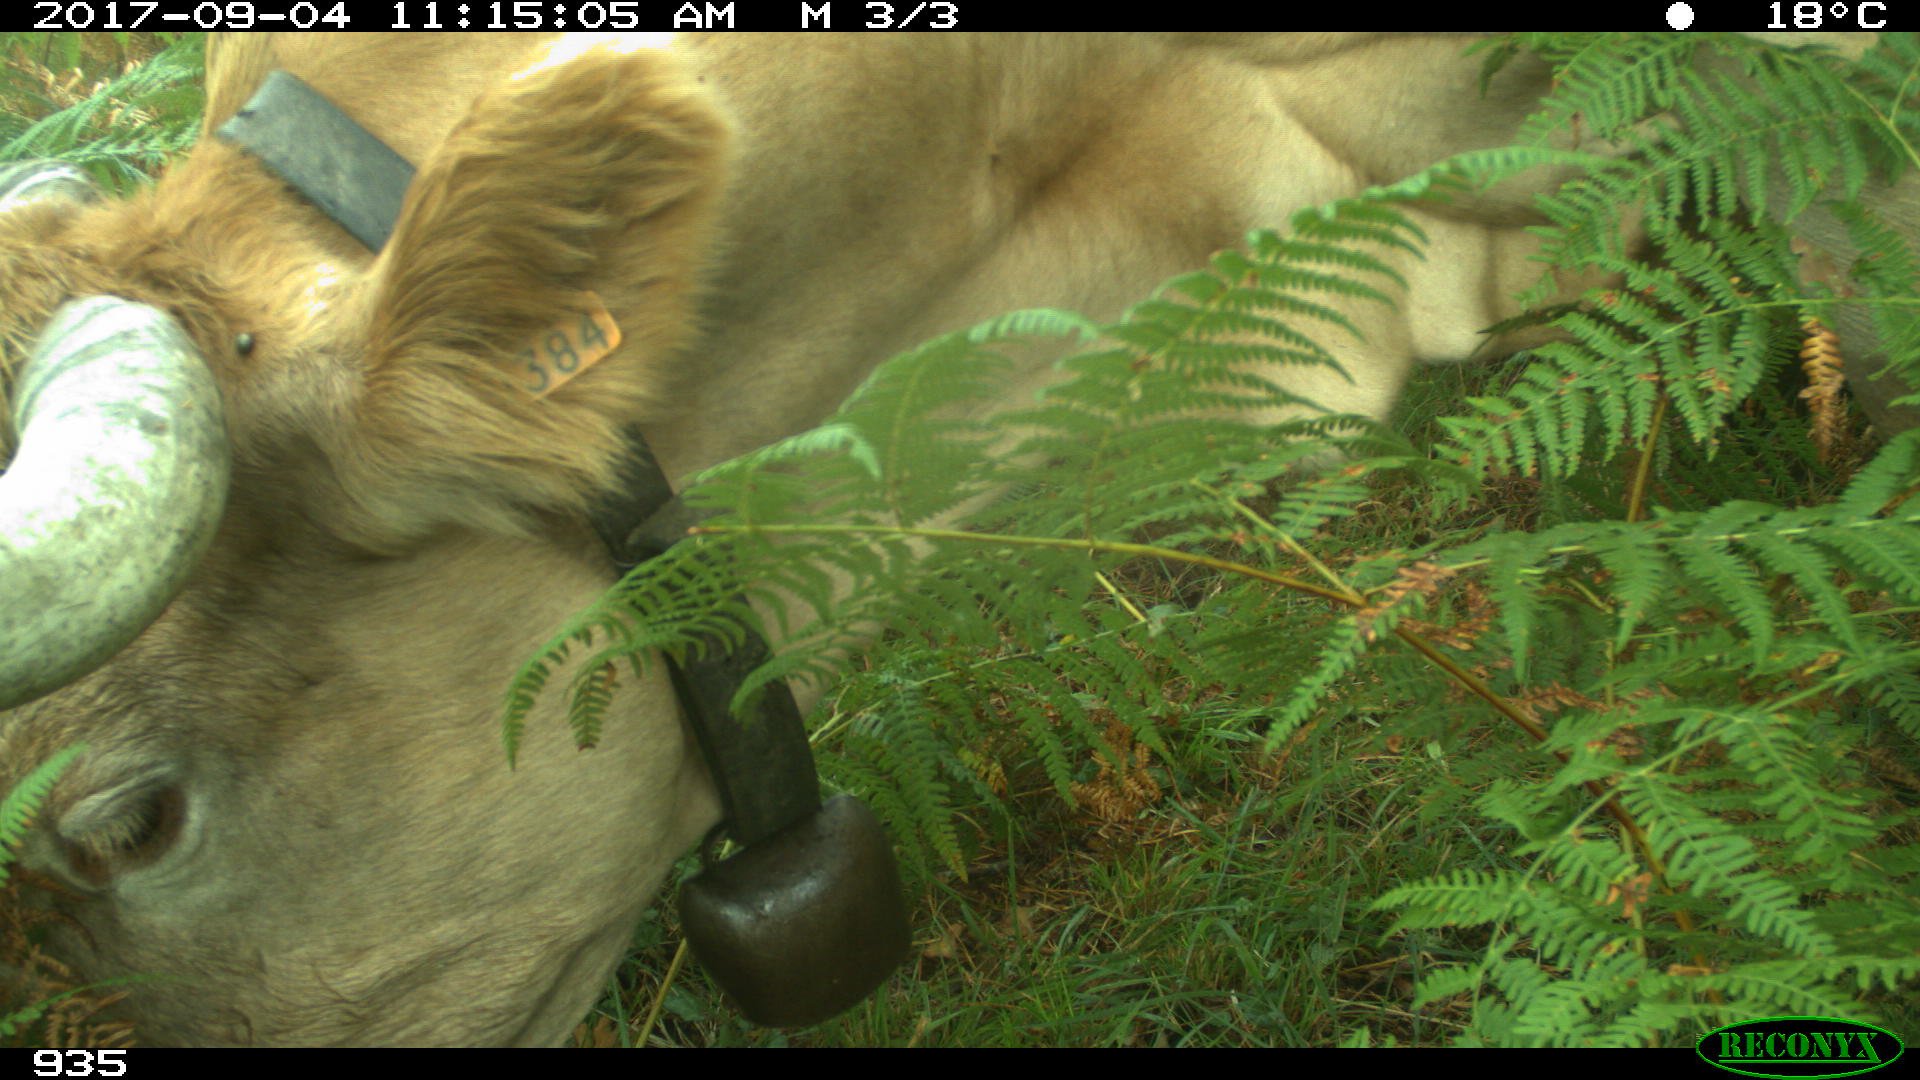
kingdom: Animalia
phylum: Chordata
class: Mammalia
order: Artiodactyla
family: Bovidae
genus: Bos
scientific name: Bos taurus
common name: Domesticated cattle
